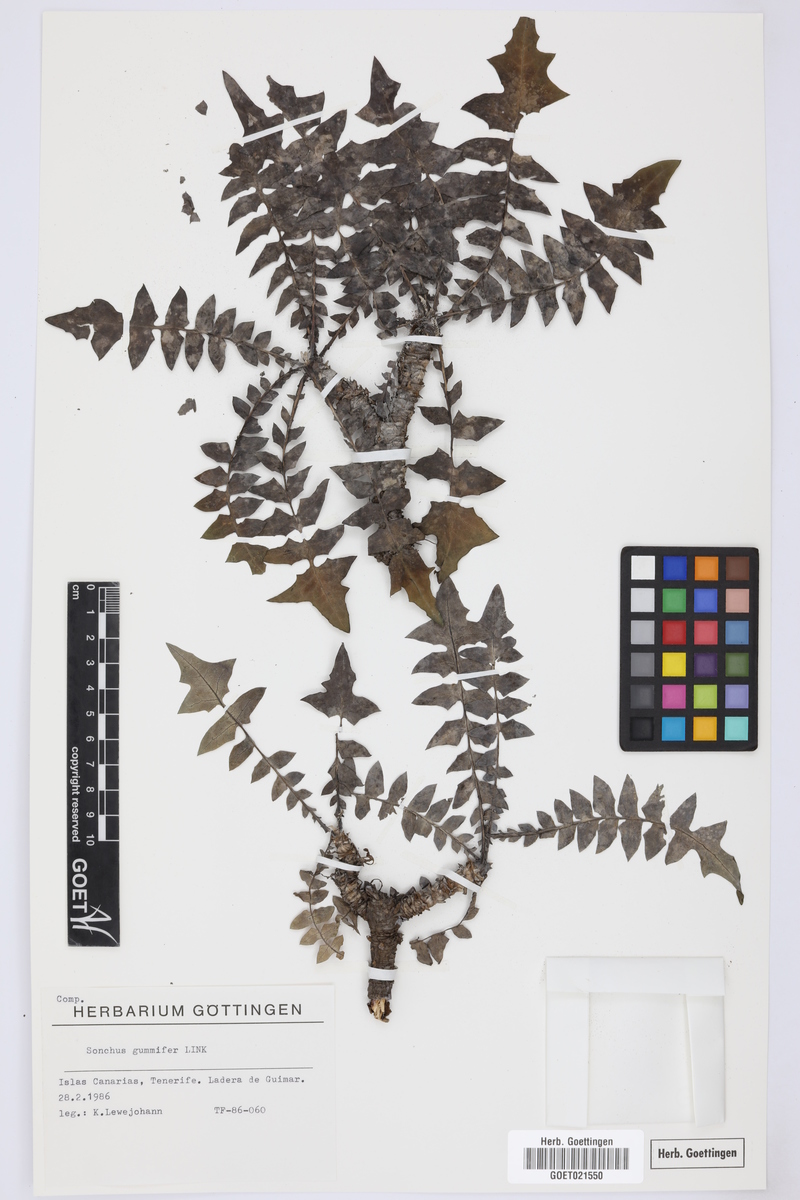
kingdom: Plantae
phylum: Tracheophyta
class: Magnoliopsida
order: Asterales
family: Asteraceae
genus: Sonchus
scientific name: Sonchus gummifer
